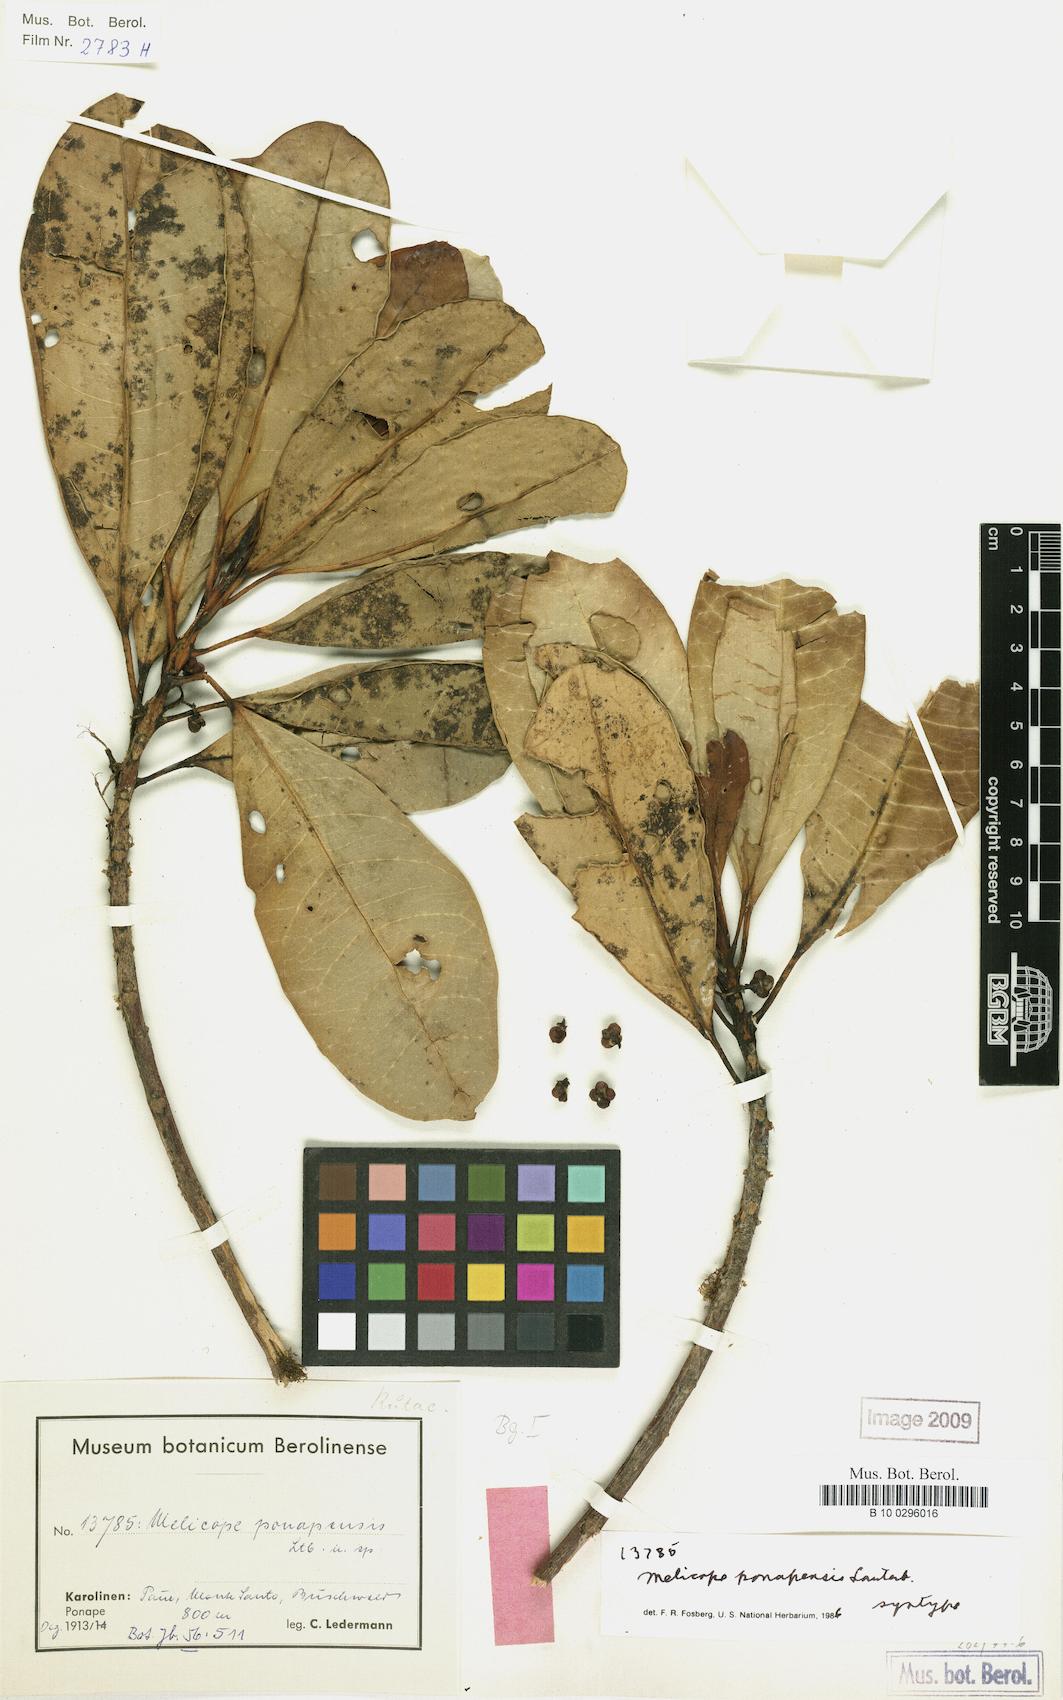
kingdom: Plantae
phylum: Tracheophyta
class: Magnoliopsida
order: Sapindales
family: Rutaceae
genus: Melicope
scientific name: Melicope ponapensis
